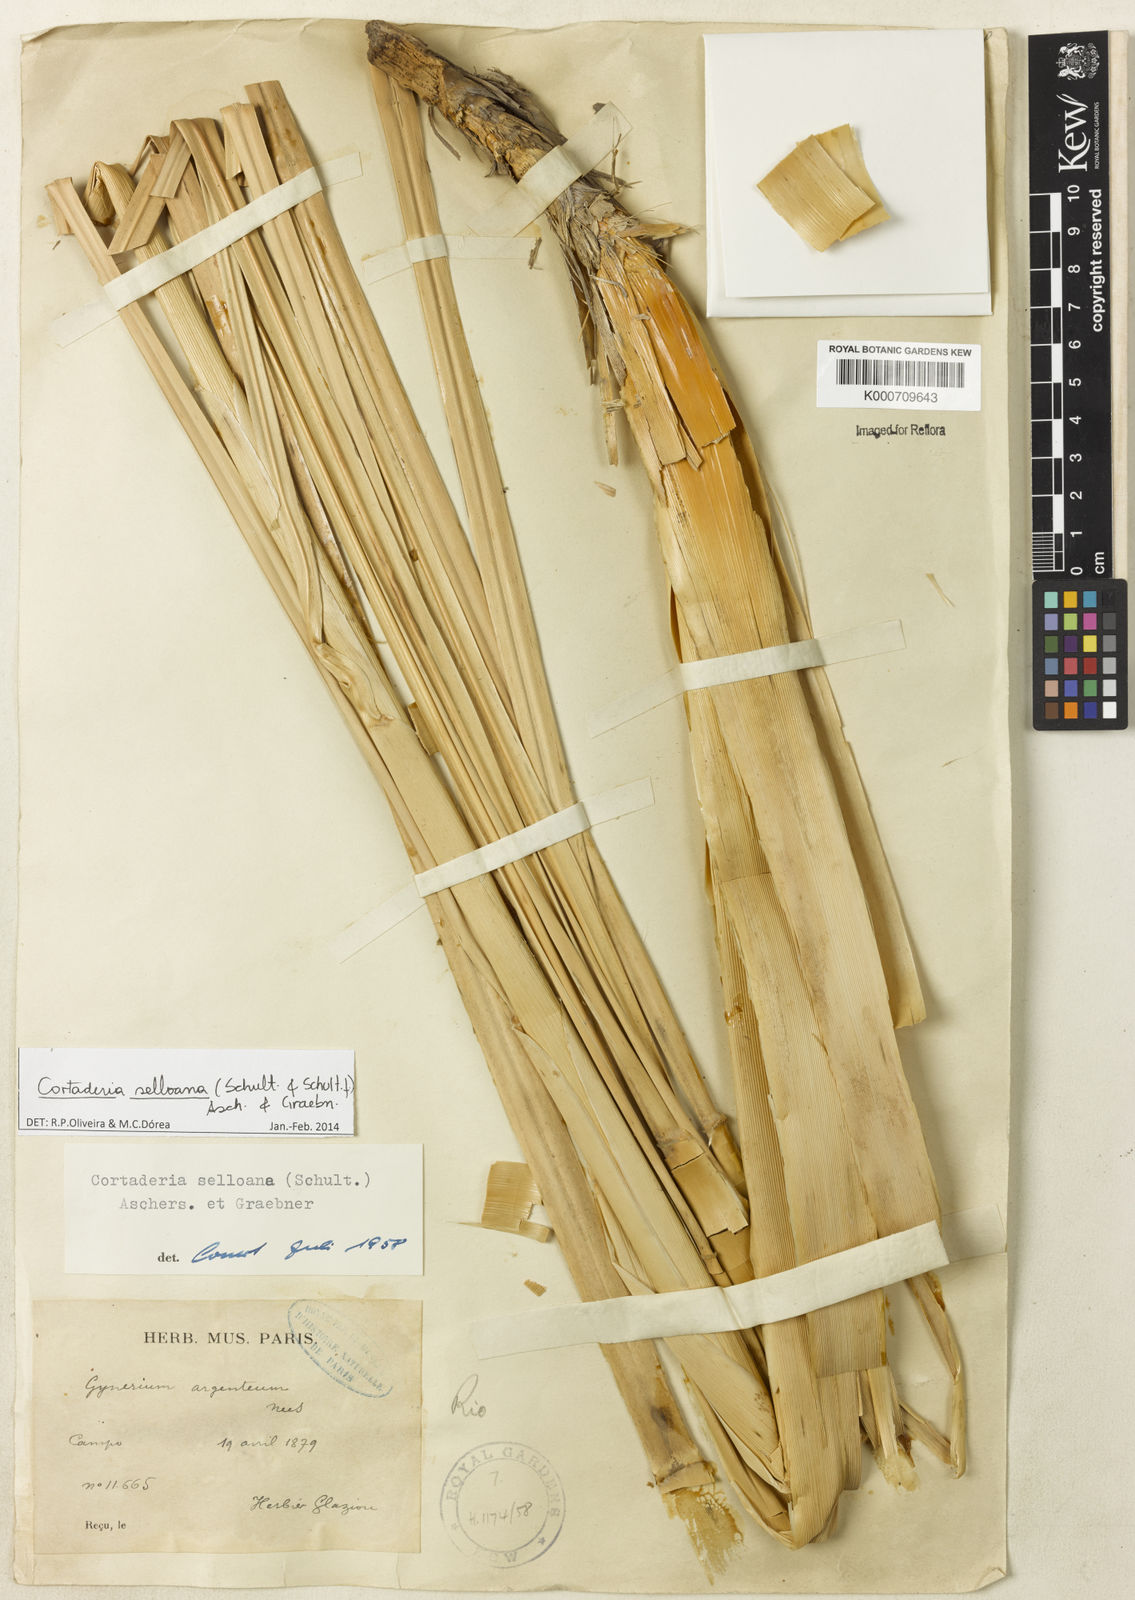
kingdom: Plantae
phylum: Tracheophyta
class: Liliopsida
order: Poales
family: Poaceae
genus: Cortaderia
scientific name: Cortaderia selloana
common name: Uruguayan pampas grass
